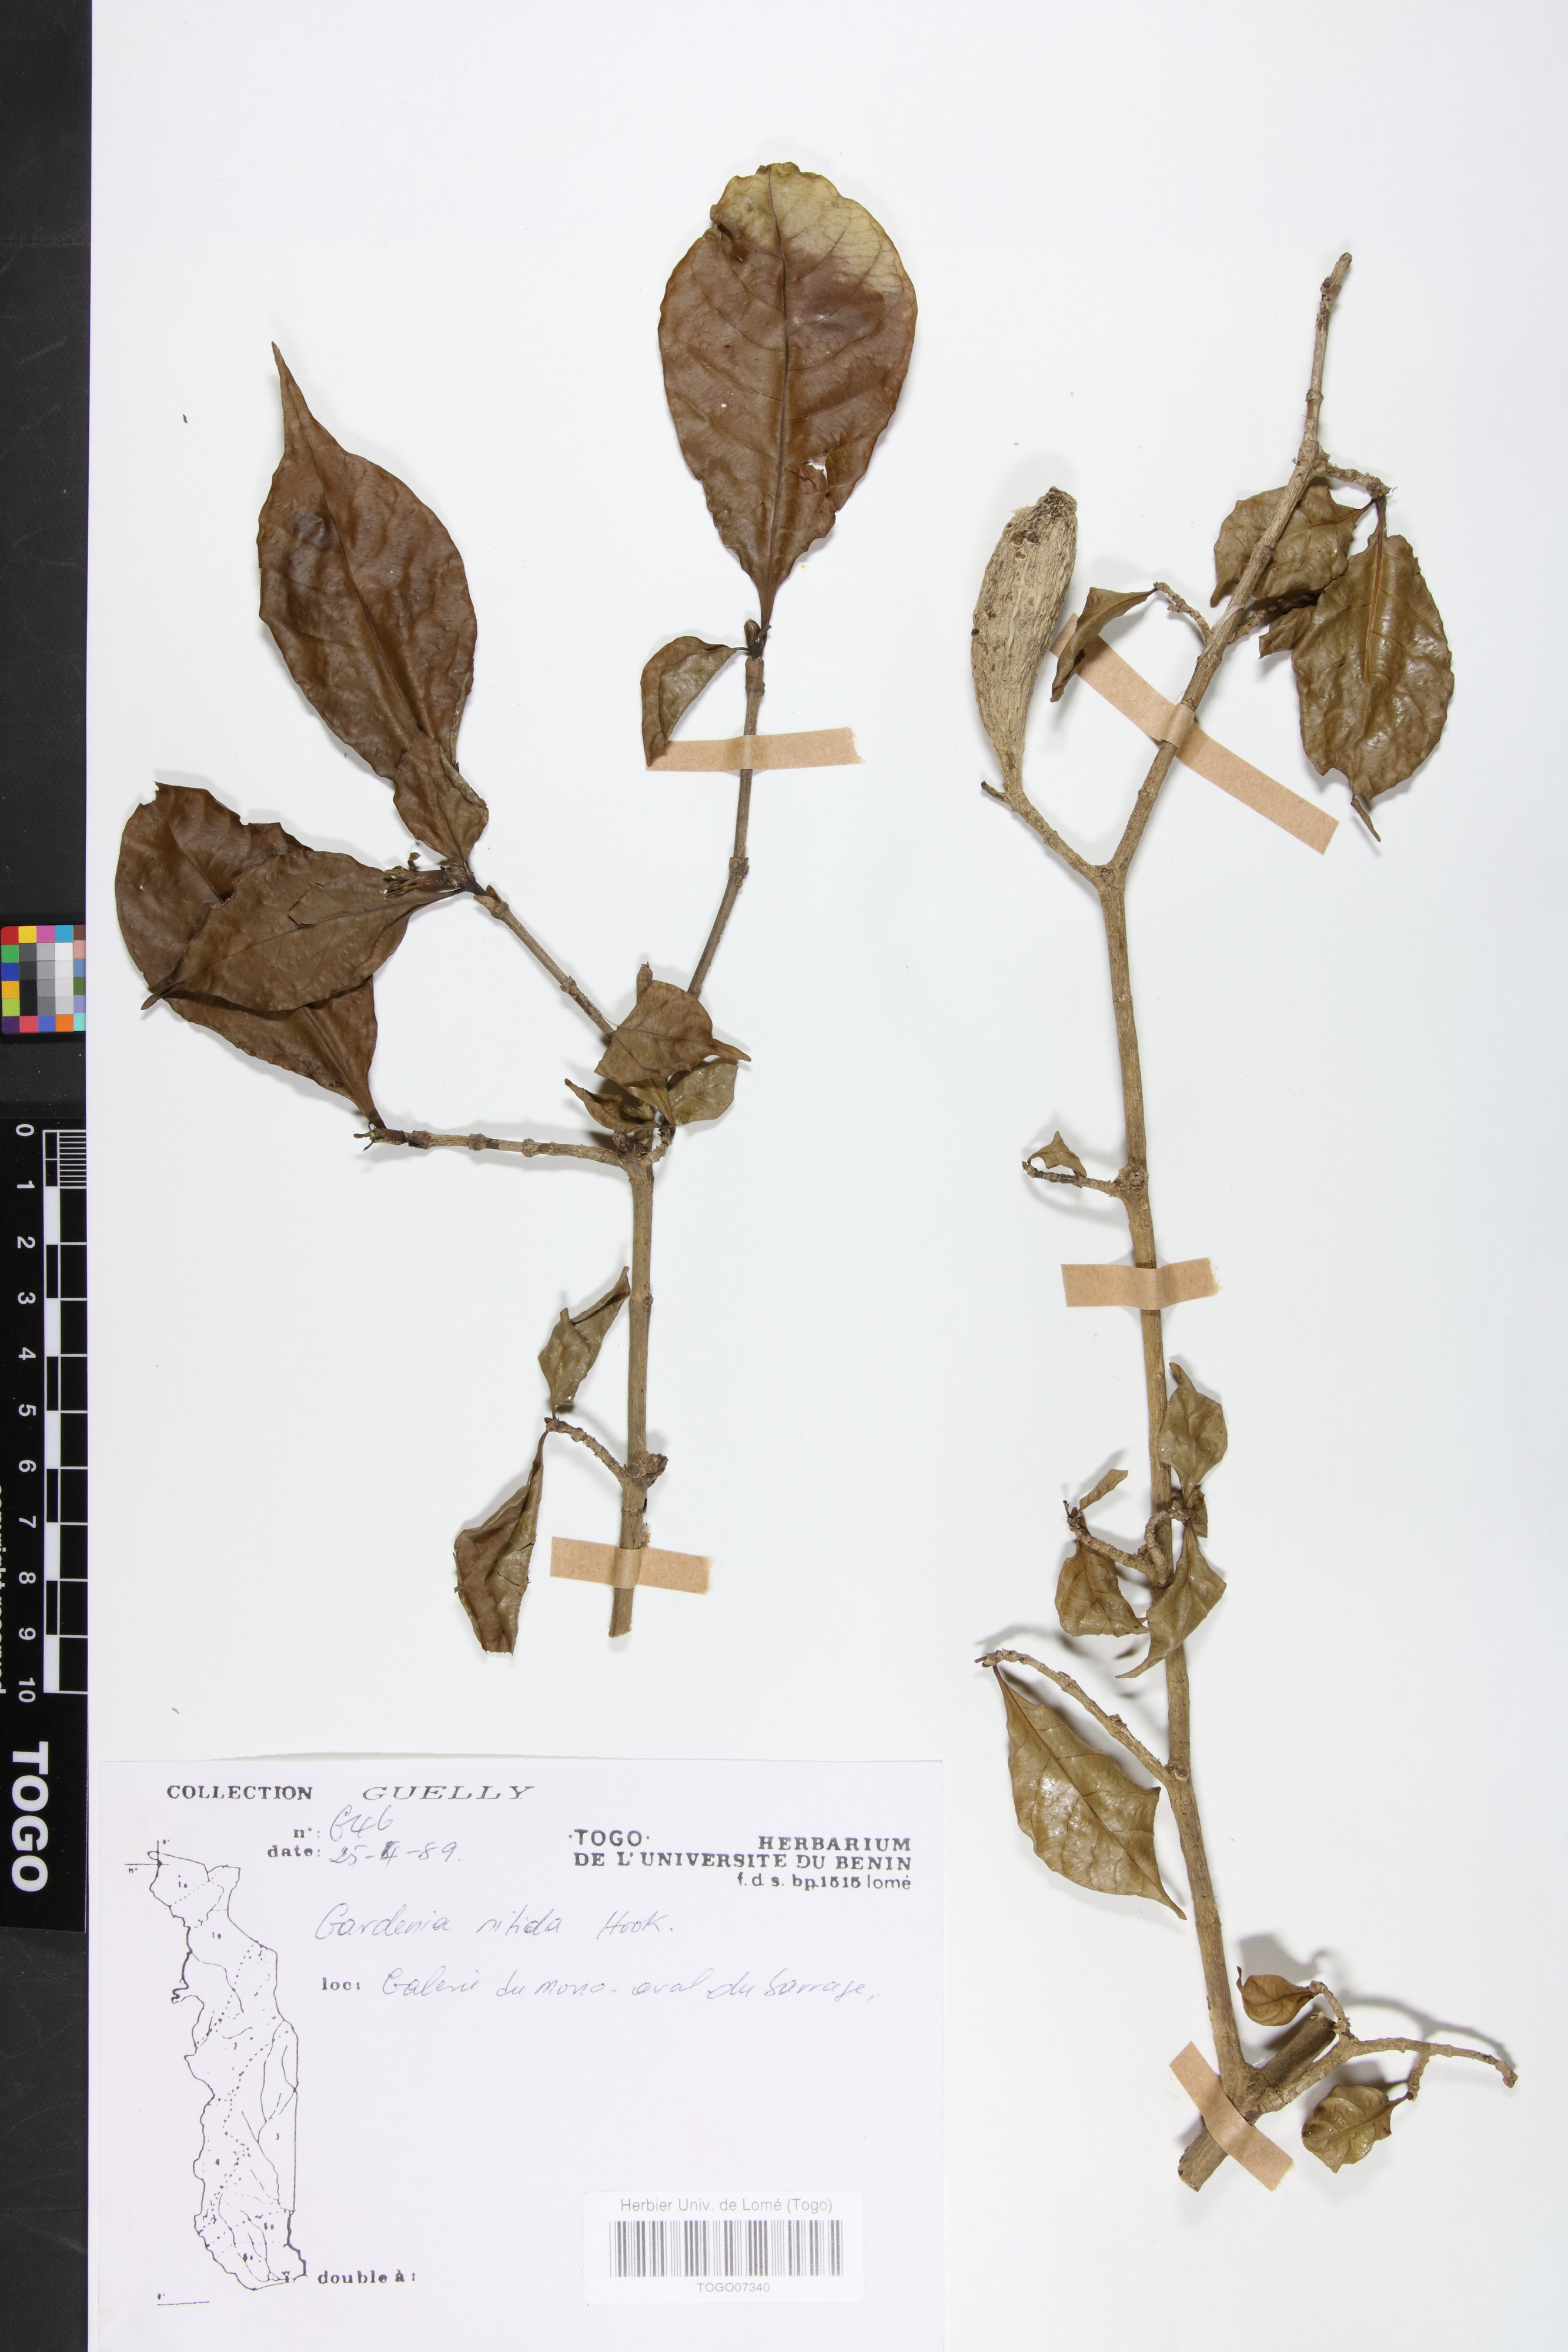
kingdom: Plantae
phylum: Tracheophyta
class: Magnoliopsida
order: Gentianales
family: Rubiaceae
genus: Gardenia
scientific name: Gardenia nitida
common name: Glossy-leaved gardenia
